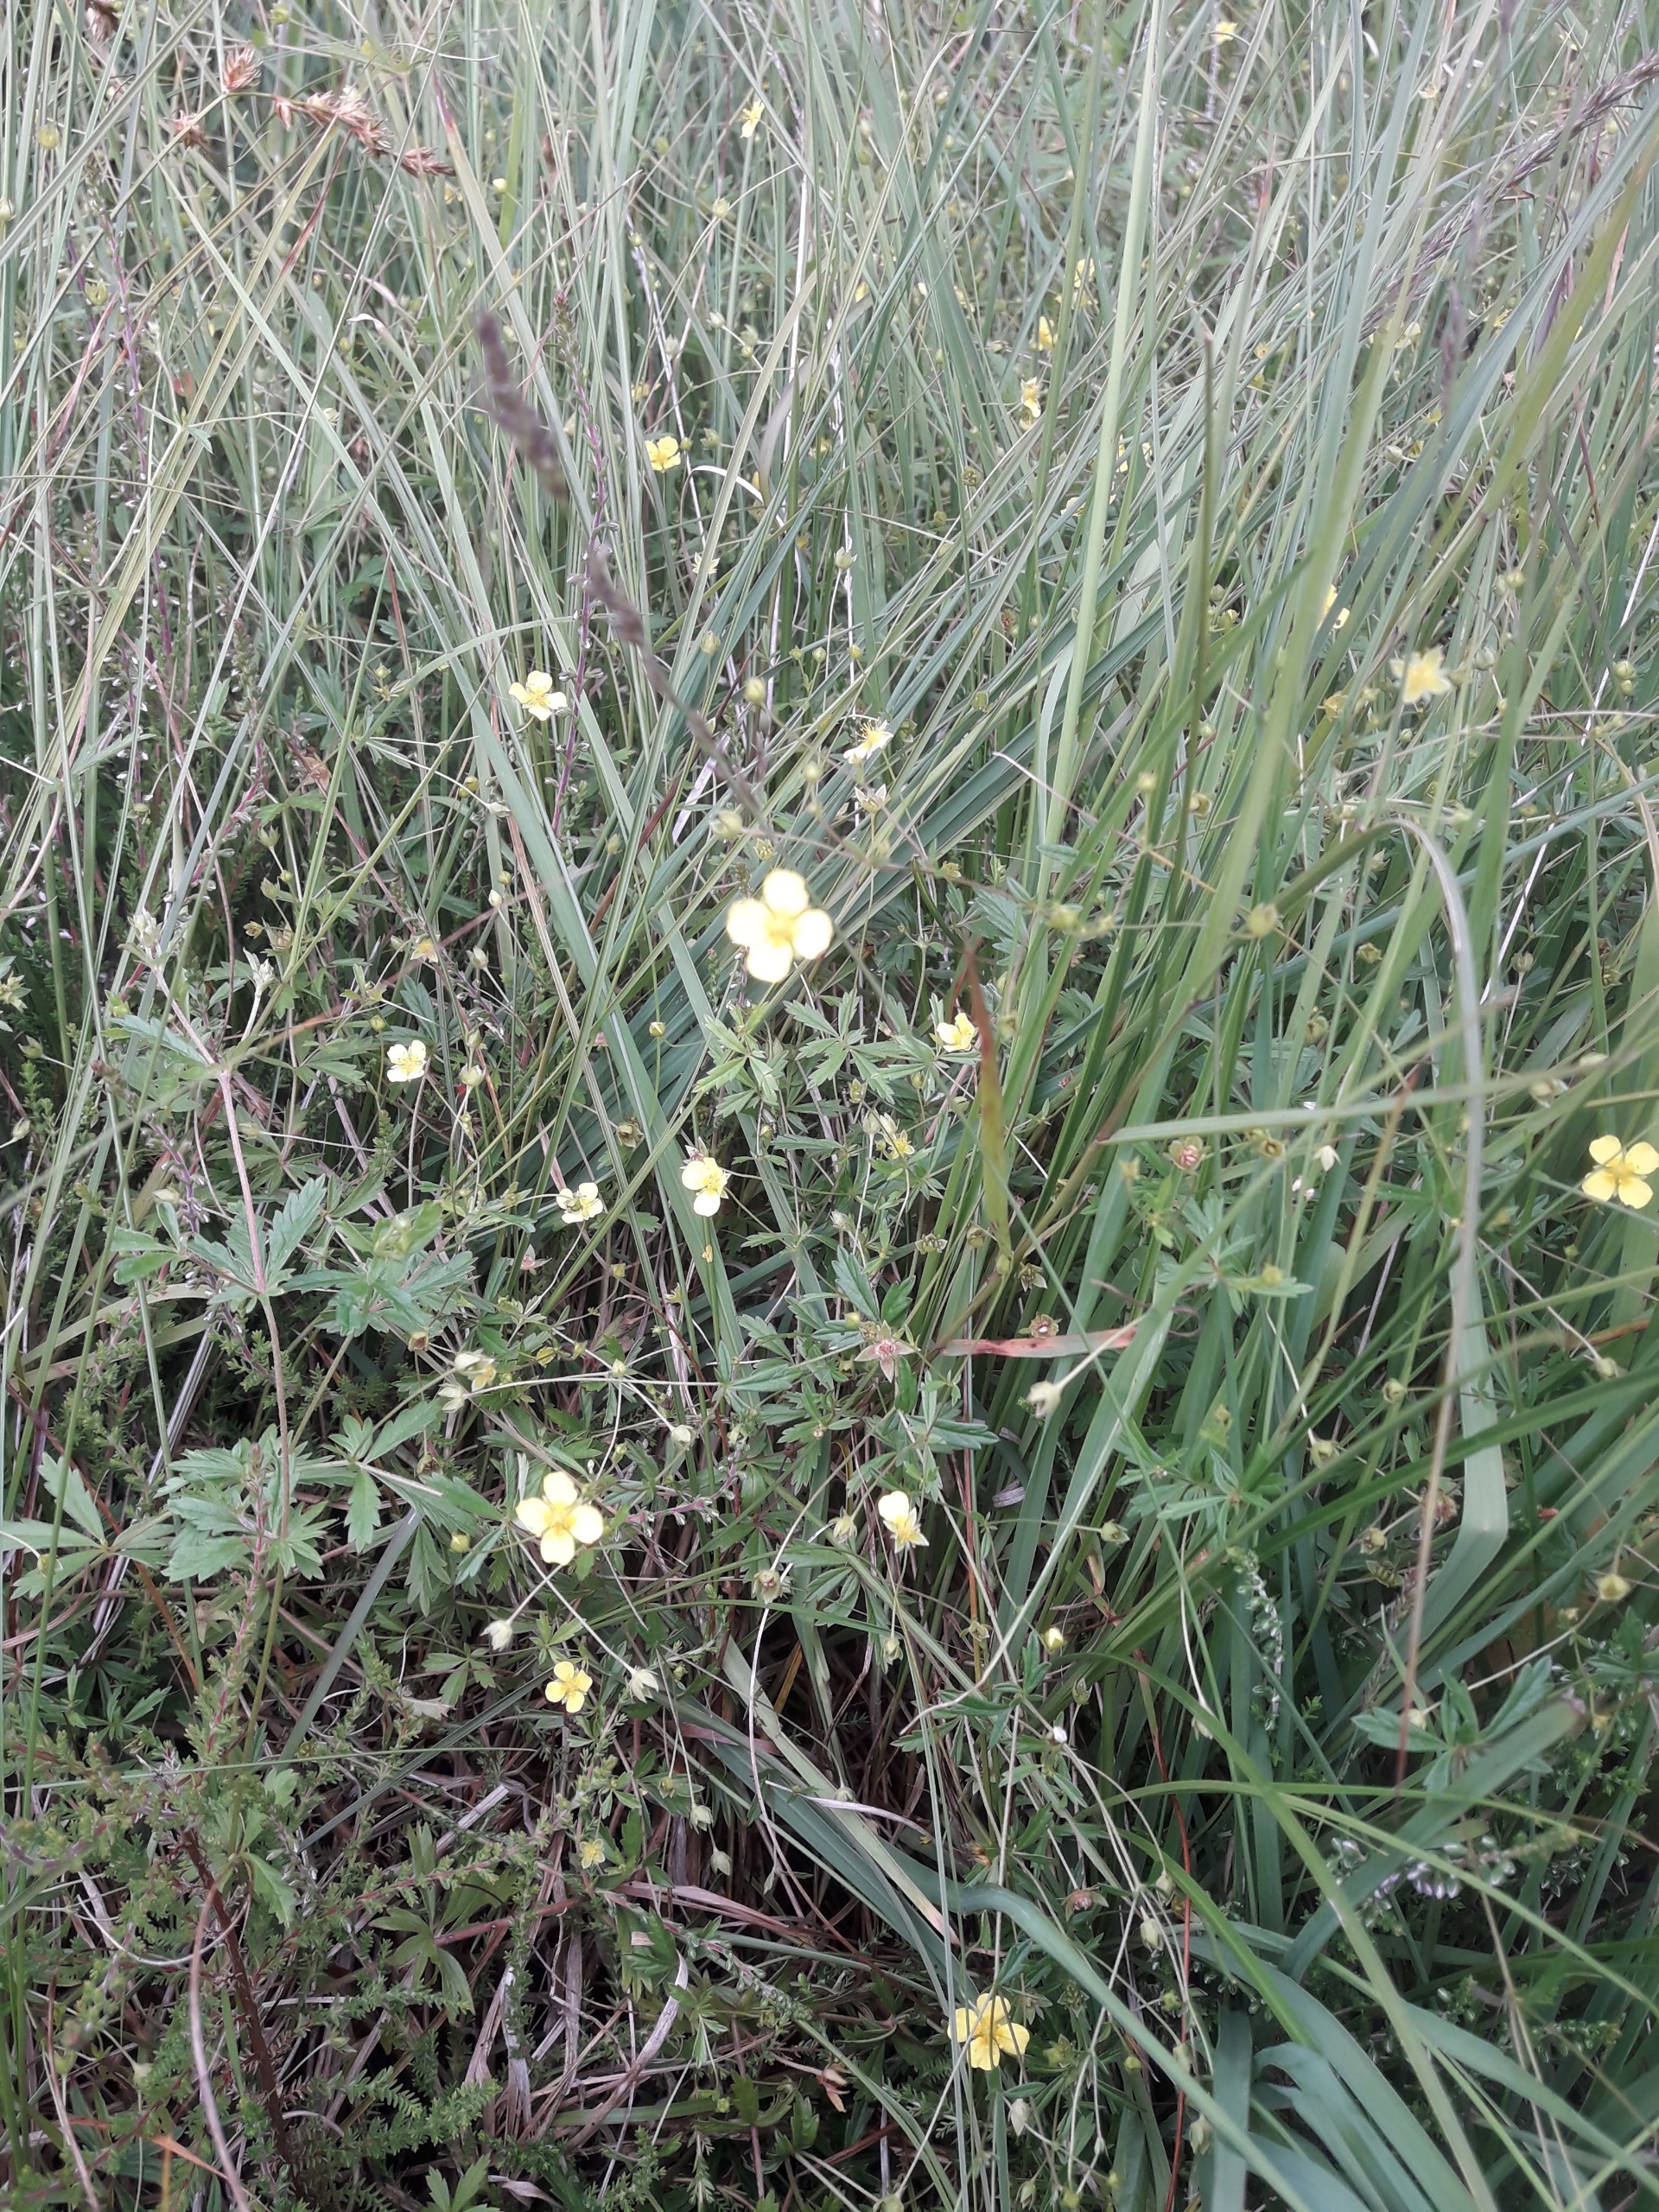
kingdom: Plantae
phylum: Tracheophyta
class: Magnoliopsida
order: Rosales
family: Rosaceae
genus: Potentilla
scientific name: Potentilla erecta
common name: Tormentil
